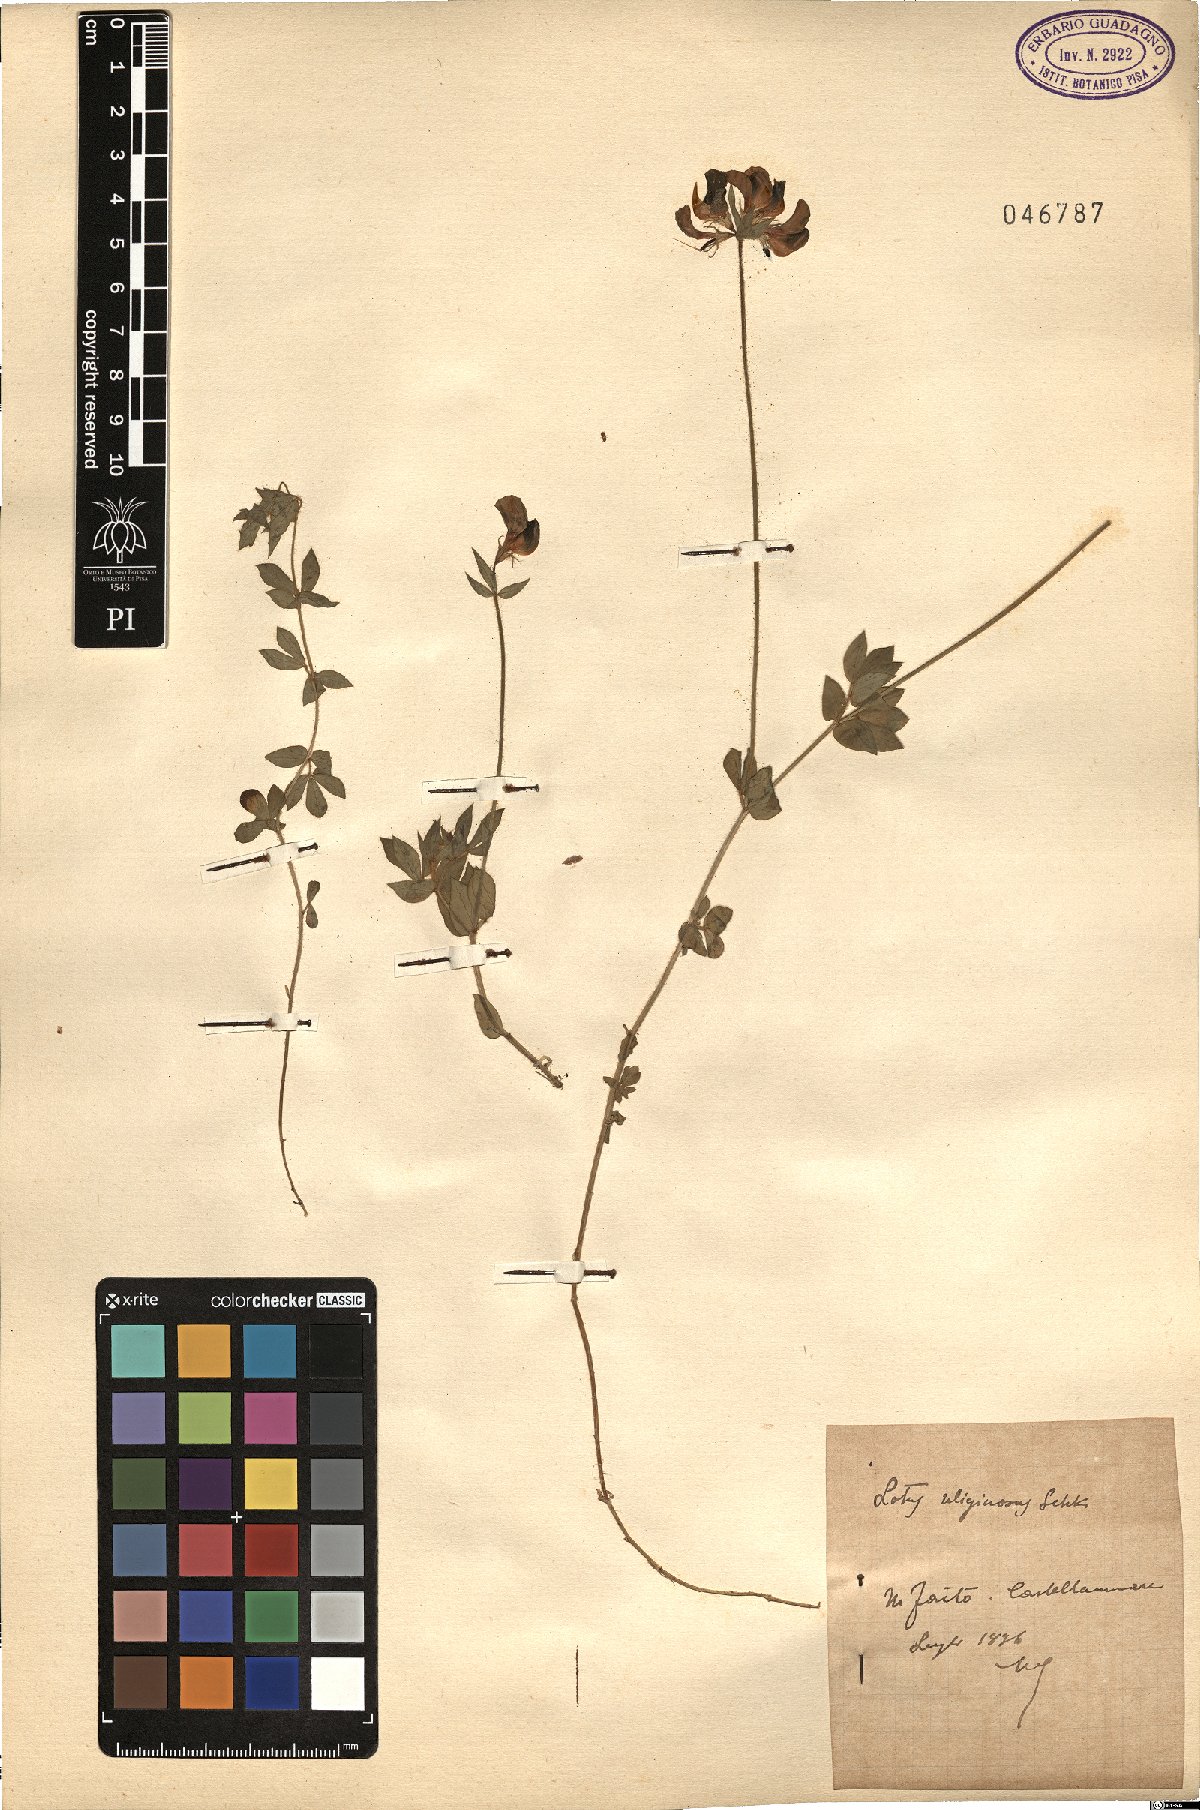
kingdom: Plantae
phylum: Tracheophyta
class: Magnoliopsida
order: Fabales
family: Fabaceae
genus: Lotus
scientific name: Lotus pedunculatus
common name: Greater birdsfoot-trefoil
